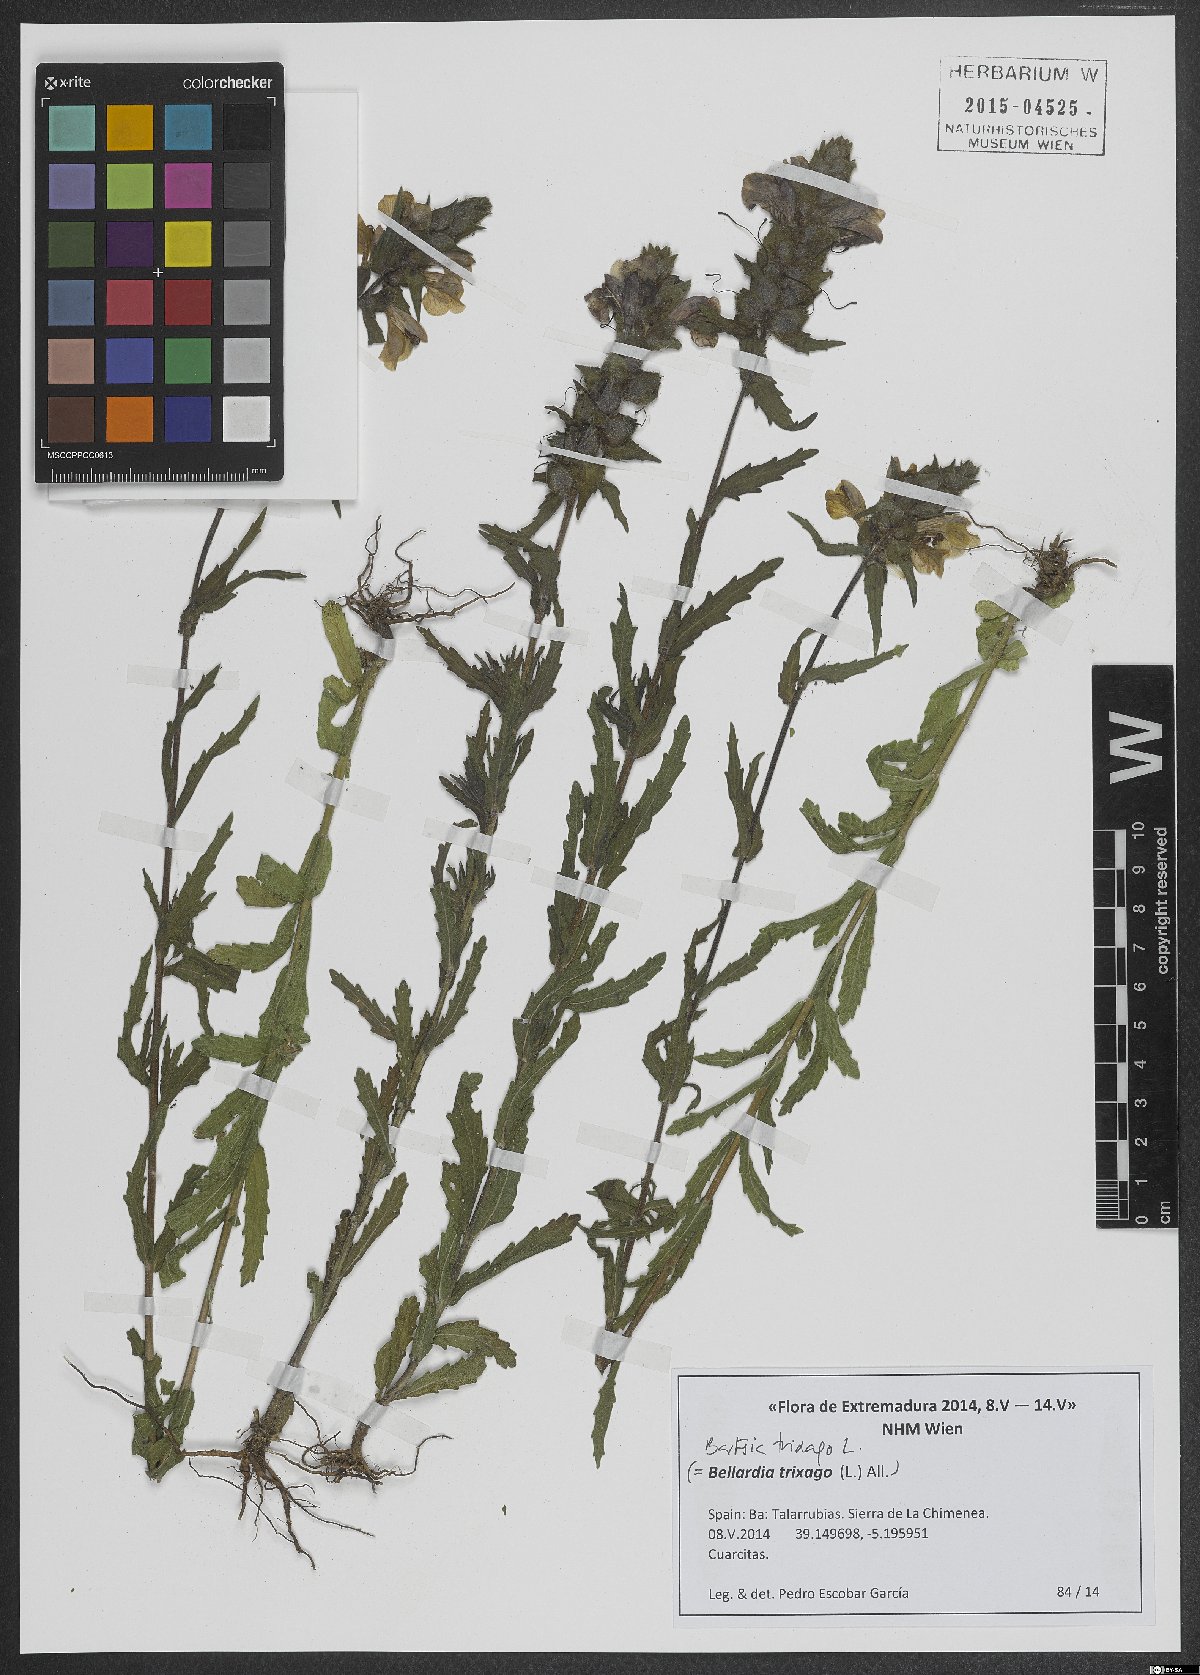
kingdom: Plantae
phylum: Tracheophyta
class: Magnoliopsida
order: Lamiales
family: Orobanchaceae
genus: Bellardia
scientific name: Bellardia trixago
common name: Mediterranean lineseed
